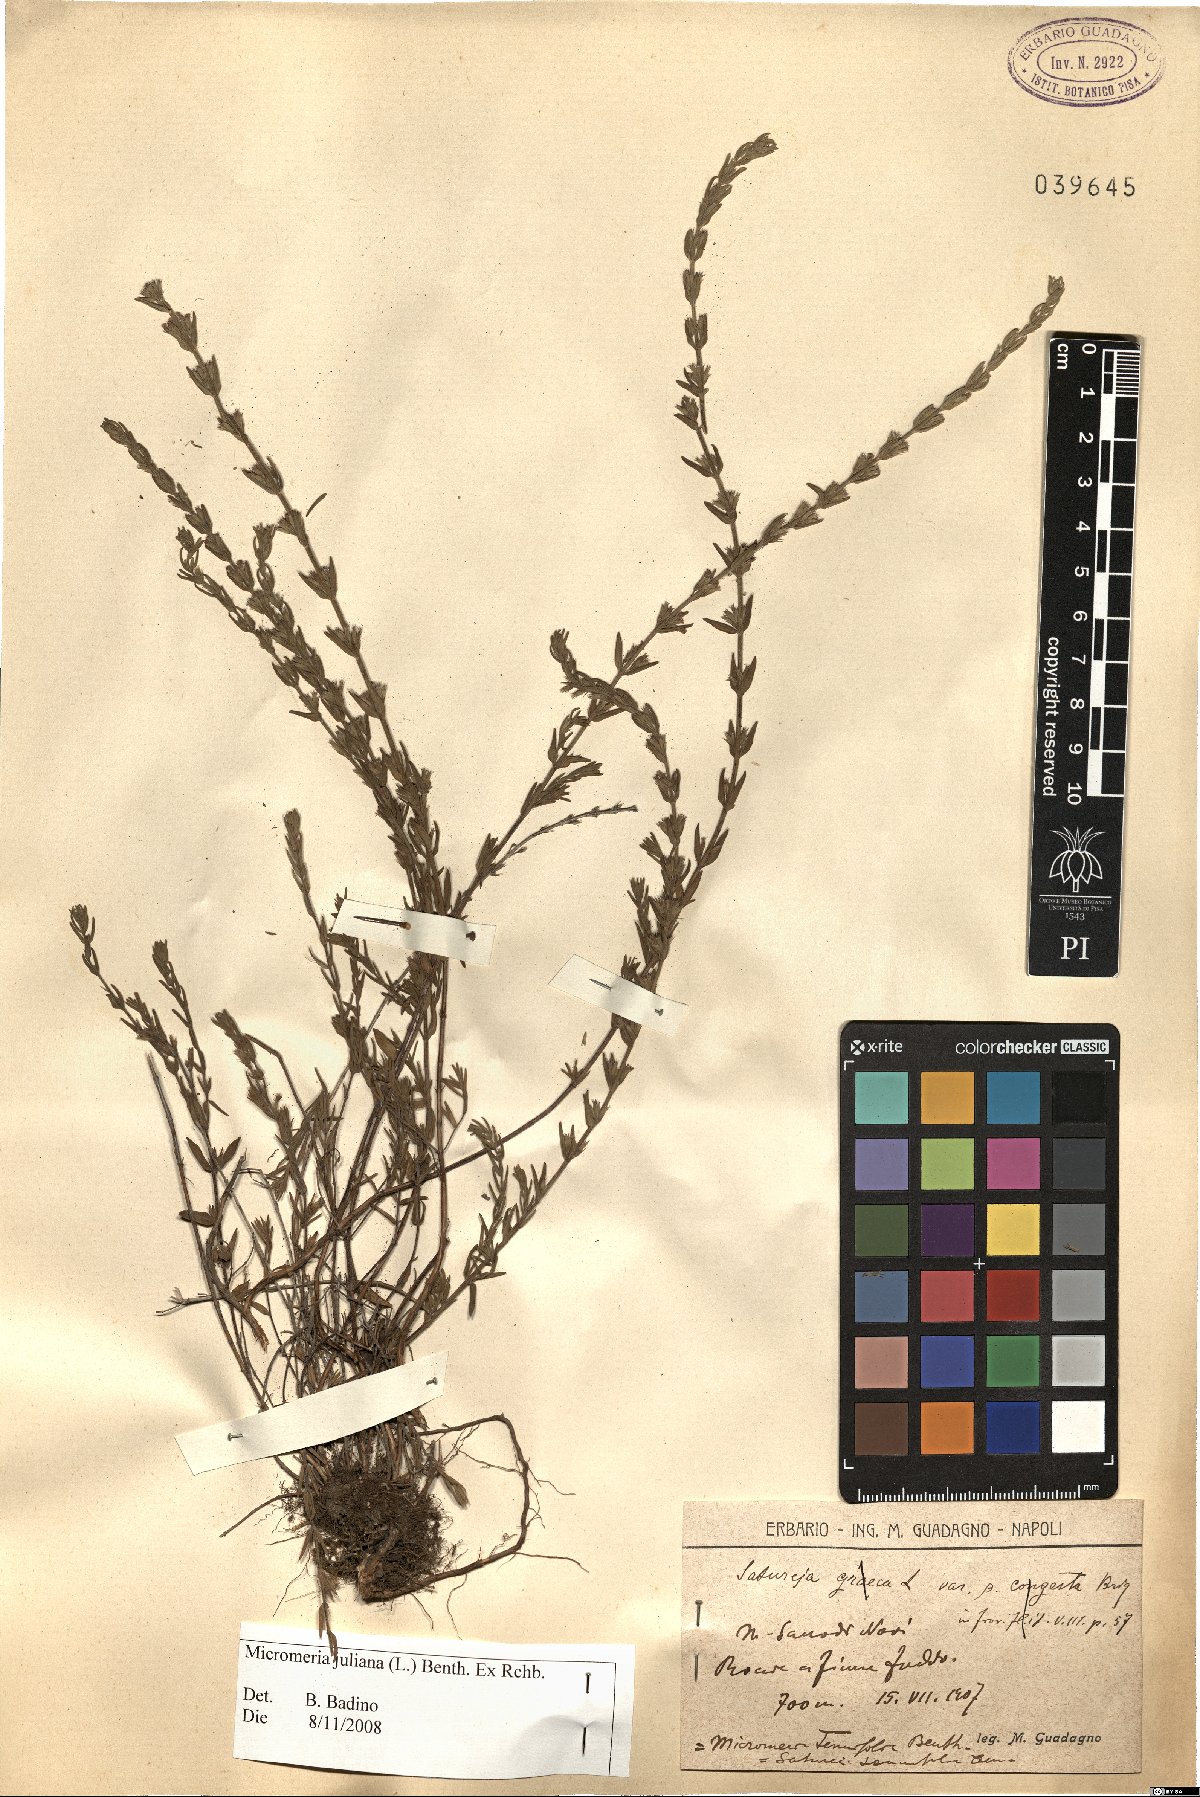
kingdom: Plantae
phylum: Tracheophyta
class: Magnoliopsida
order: Lamiales
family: Lamiaceae
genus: Micromeria
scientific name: Micromeria juliana
